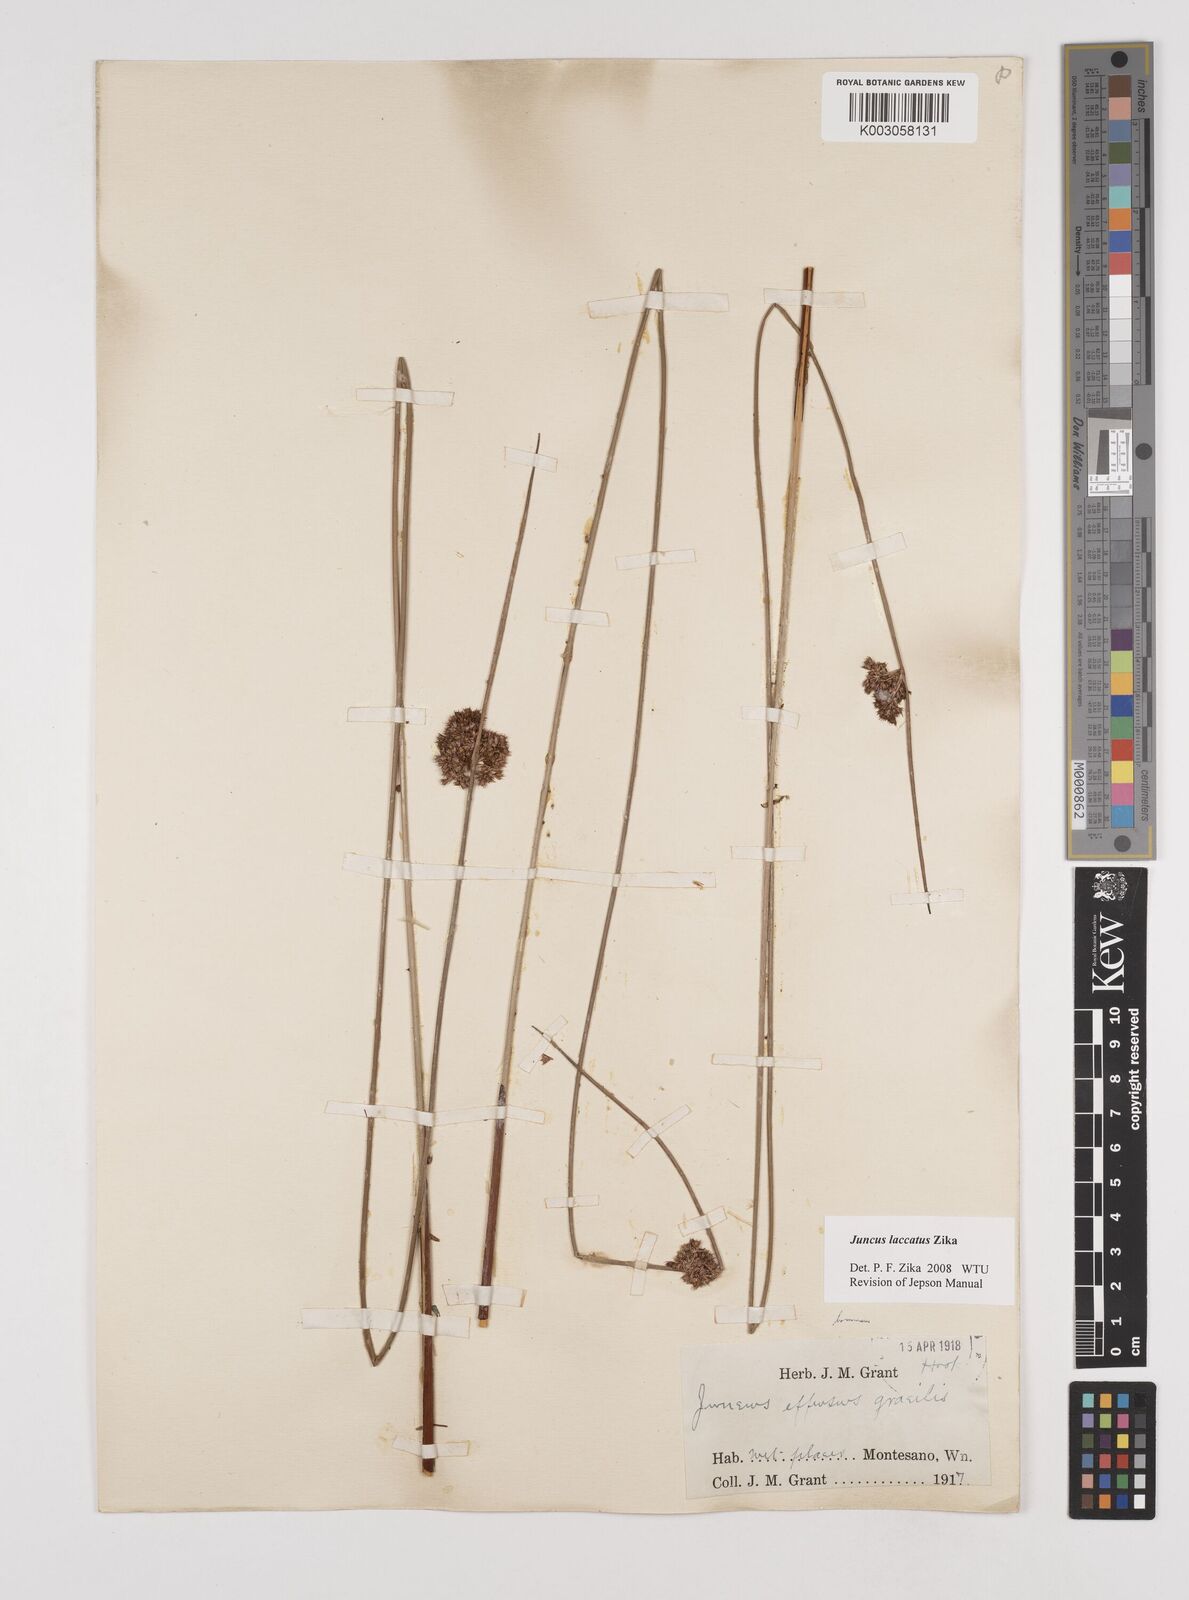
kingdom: Plantae
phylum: Tracheophyta
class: Liliopsida
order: Poales
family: Juncaceae
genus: Juncus
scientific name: Juncus laccatus
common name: Shiny rush
